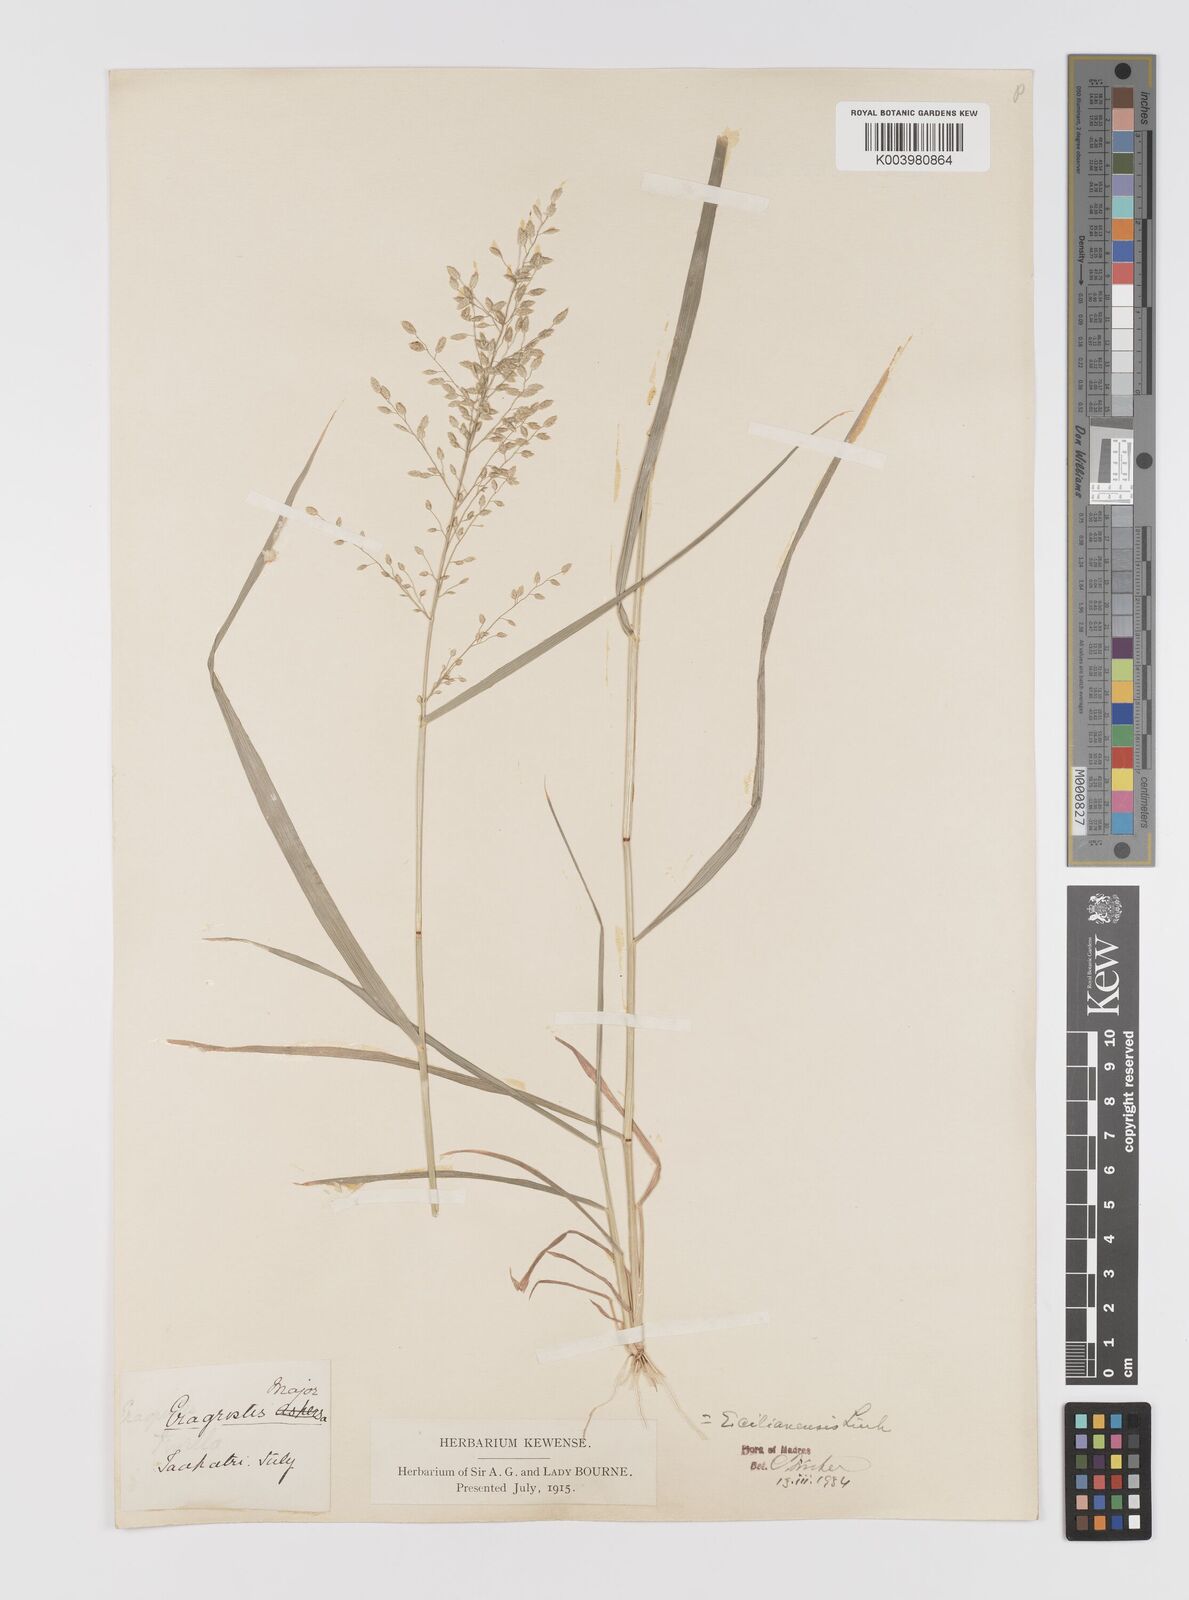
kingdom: Plantae
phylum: Tracheophyta
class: Liliopsida
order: Poales
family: Poaceae
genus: Eragrostis
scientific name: Eragrostis cilianensis
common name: Stinkgrass
